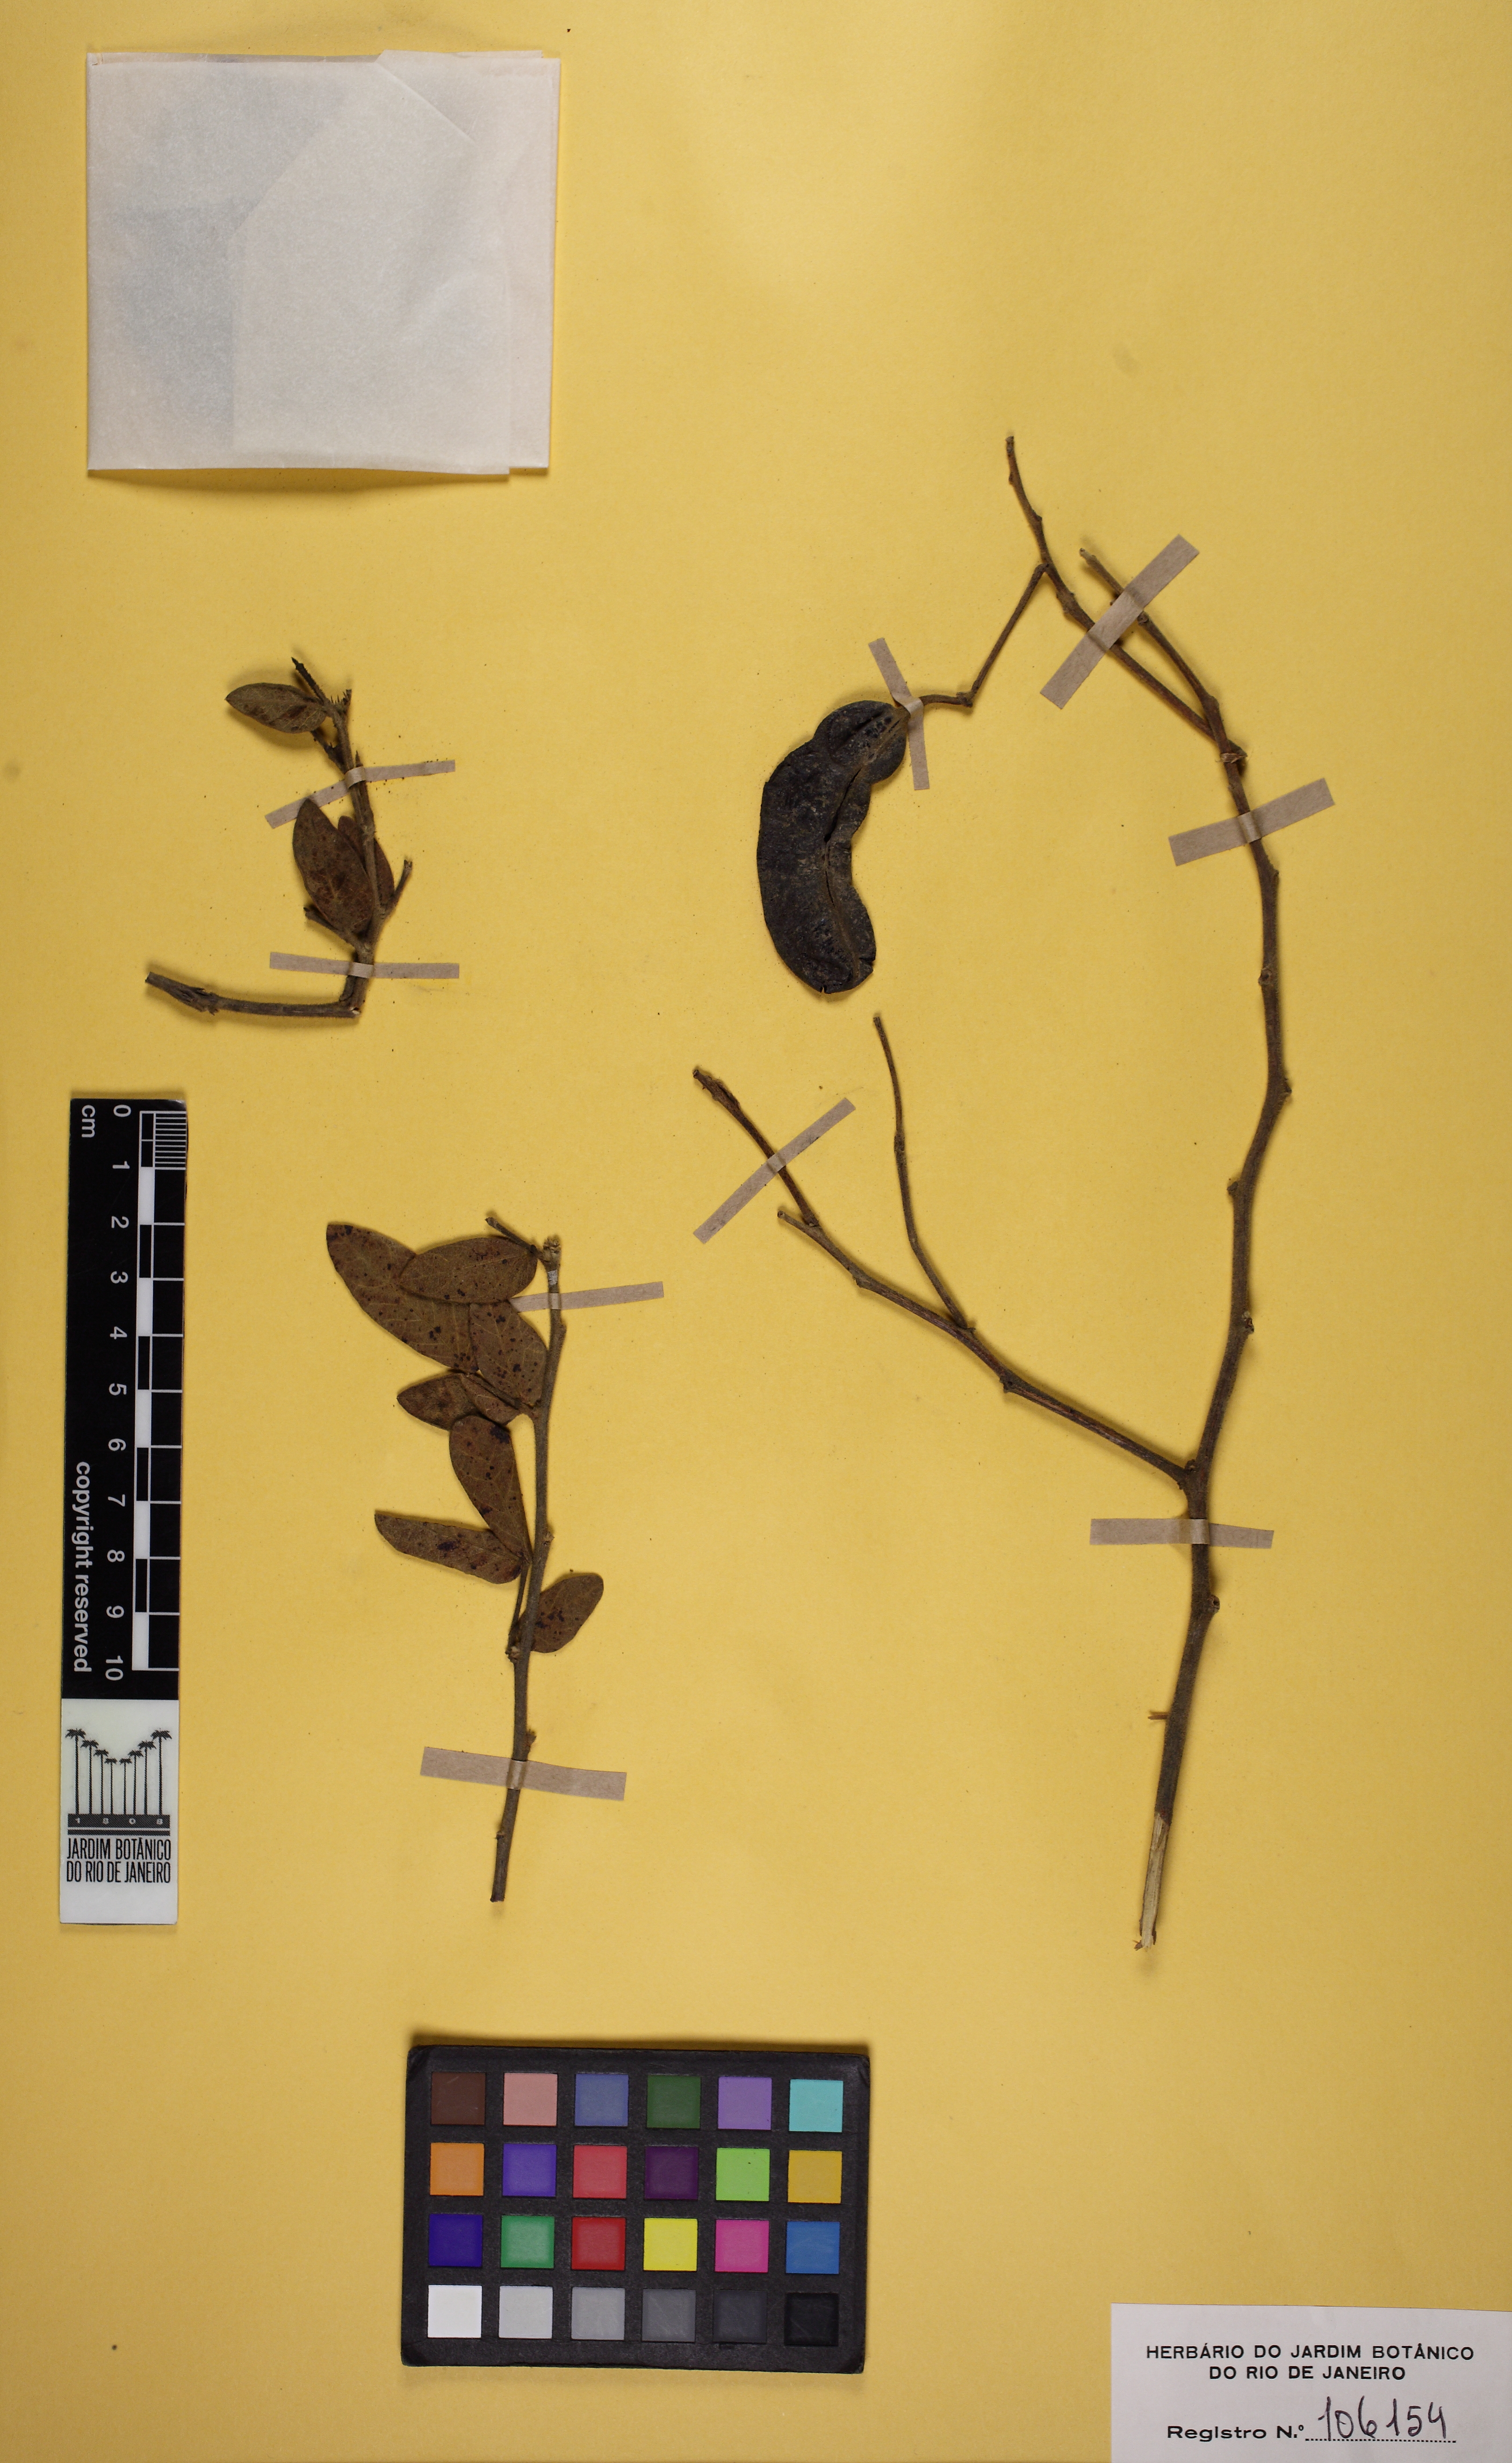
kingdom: Plantae
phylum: Tracheophyta
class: Magnoliopsida
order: Fabales
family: Fabaceae
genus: Senna
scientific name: Senna rugosa
